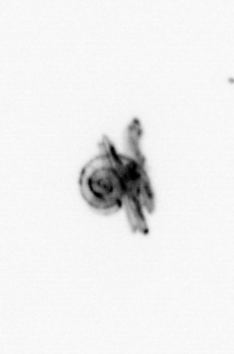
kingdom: Animalia
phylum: Mollusca
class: Gastropoda
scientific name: Gastropoda
